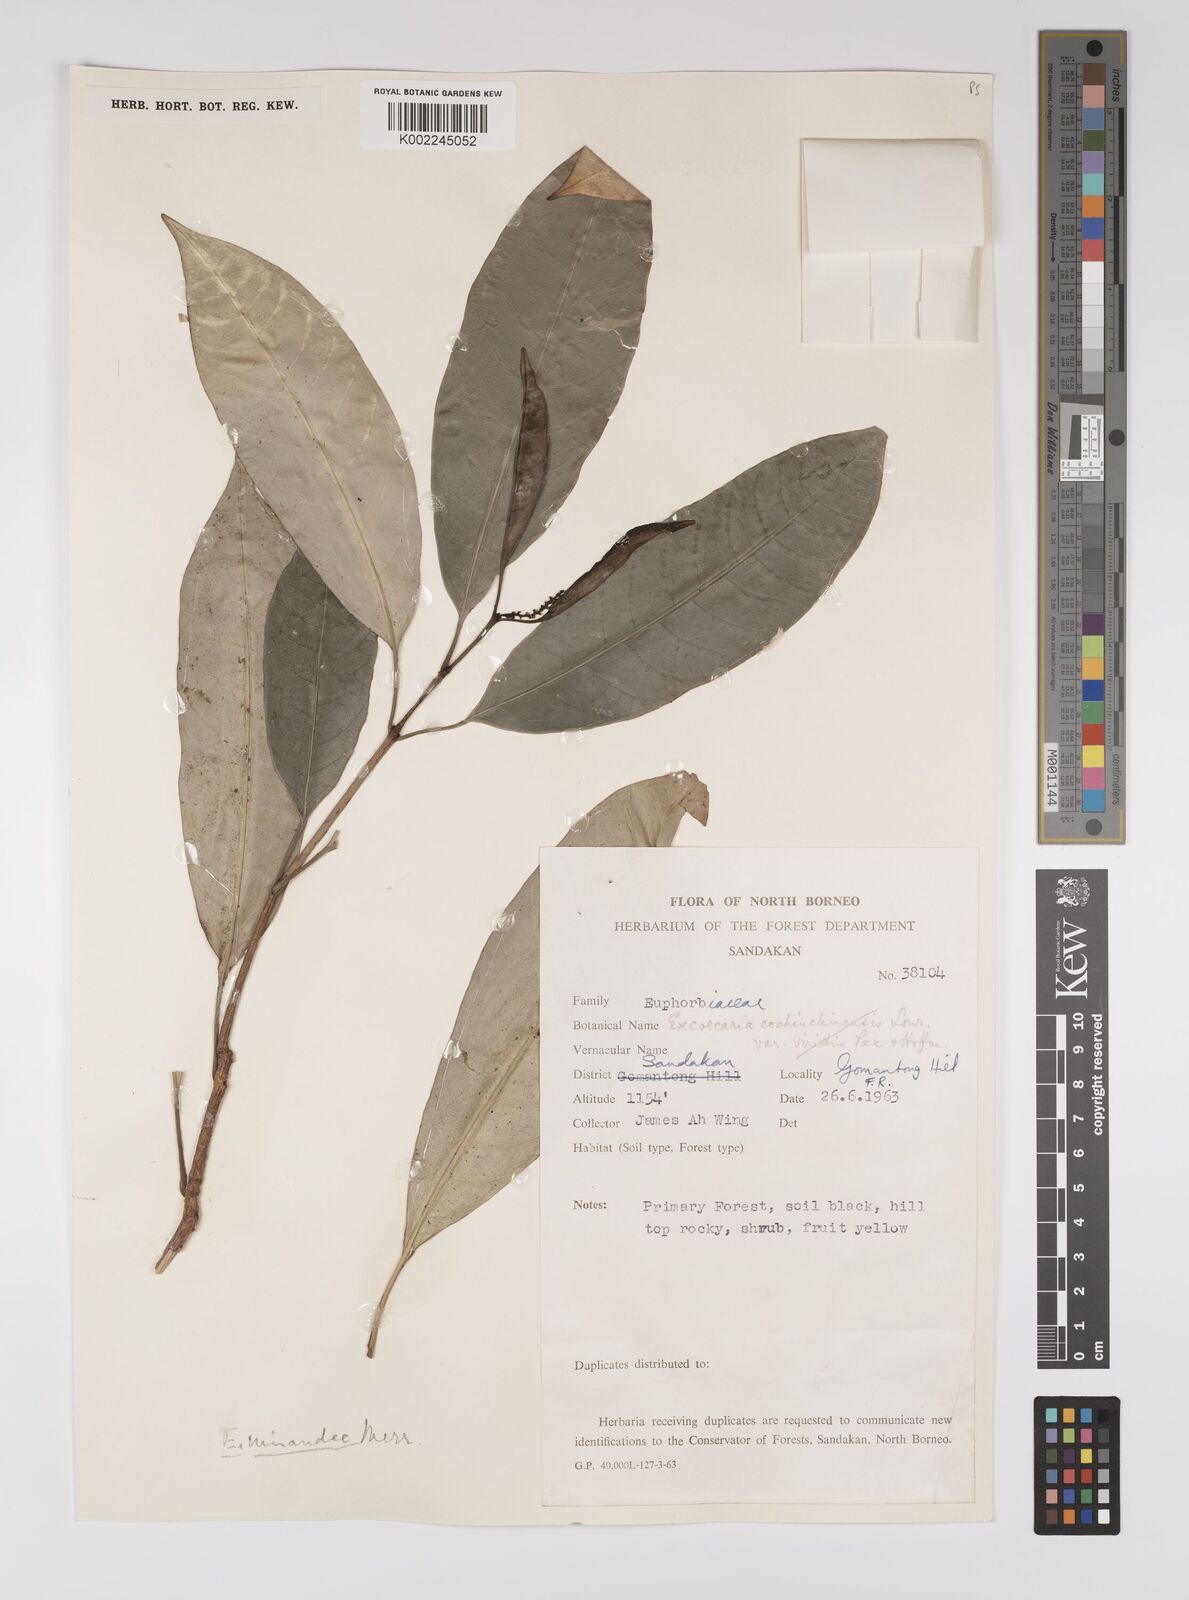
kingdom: Plantae
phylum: Tracheophyta
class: Magnoliopsida
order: Malpighiales
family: Euphorbiaceae
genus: Excoecaria
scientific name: Excoecaria borneensis
